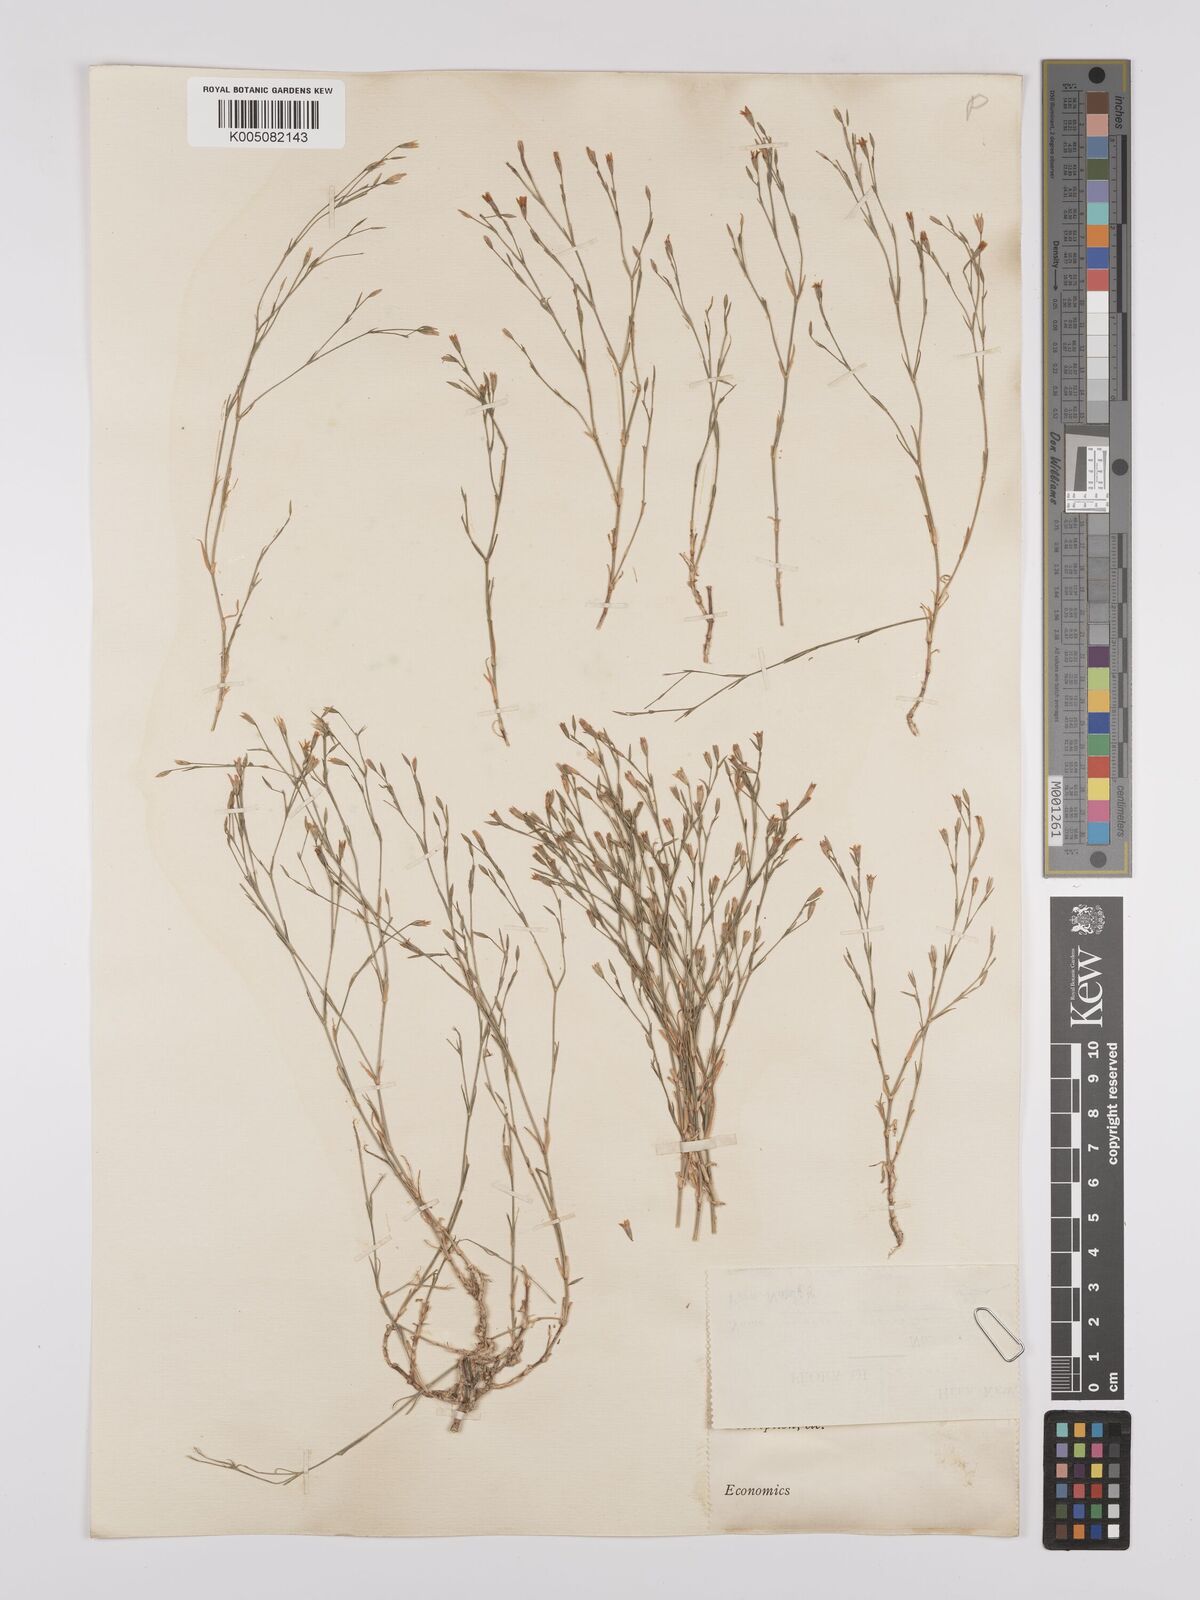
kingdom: Plantae
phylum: Tracheophyta
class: Magnoliopsida
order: Caryophyllales
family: Caryophyllaceae
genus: Petrorhagia
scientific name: Petrorhagia ochroleuca
